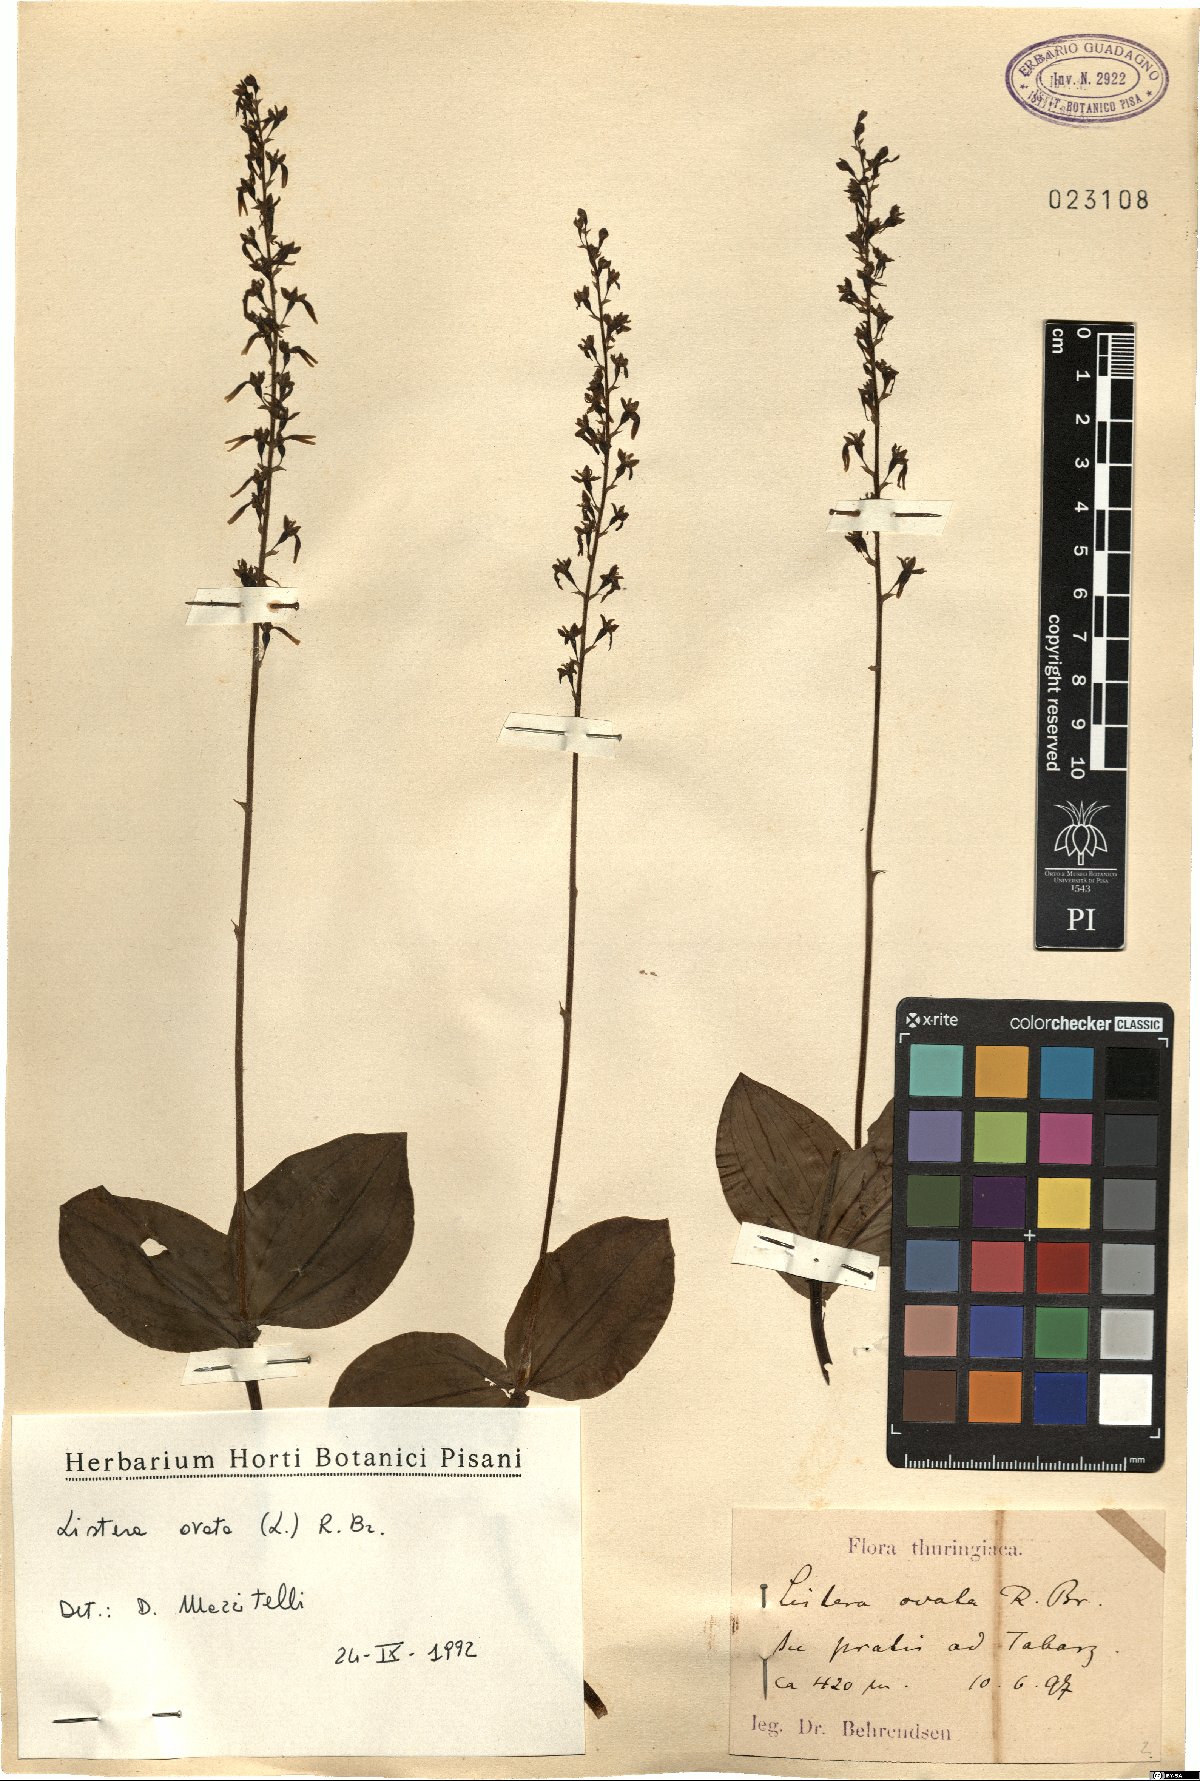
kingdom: Plantae
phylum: Tracheophyta
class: Liliopsida
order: Asparagales
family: Orchidaceae
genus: Neottia
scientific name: Neottia ovata
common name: Common twayblade
